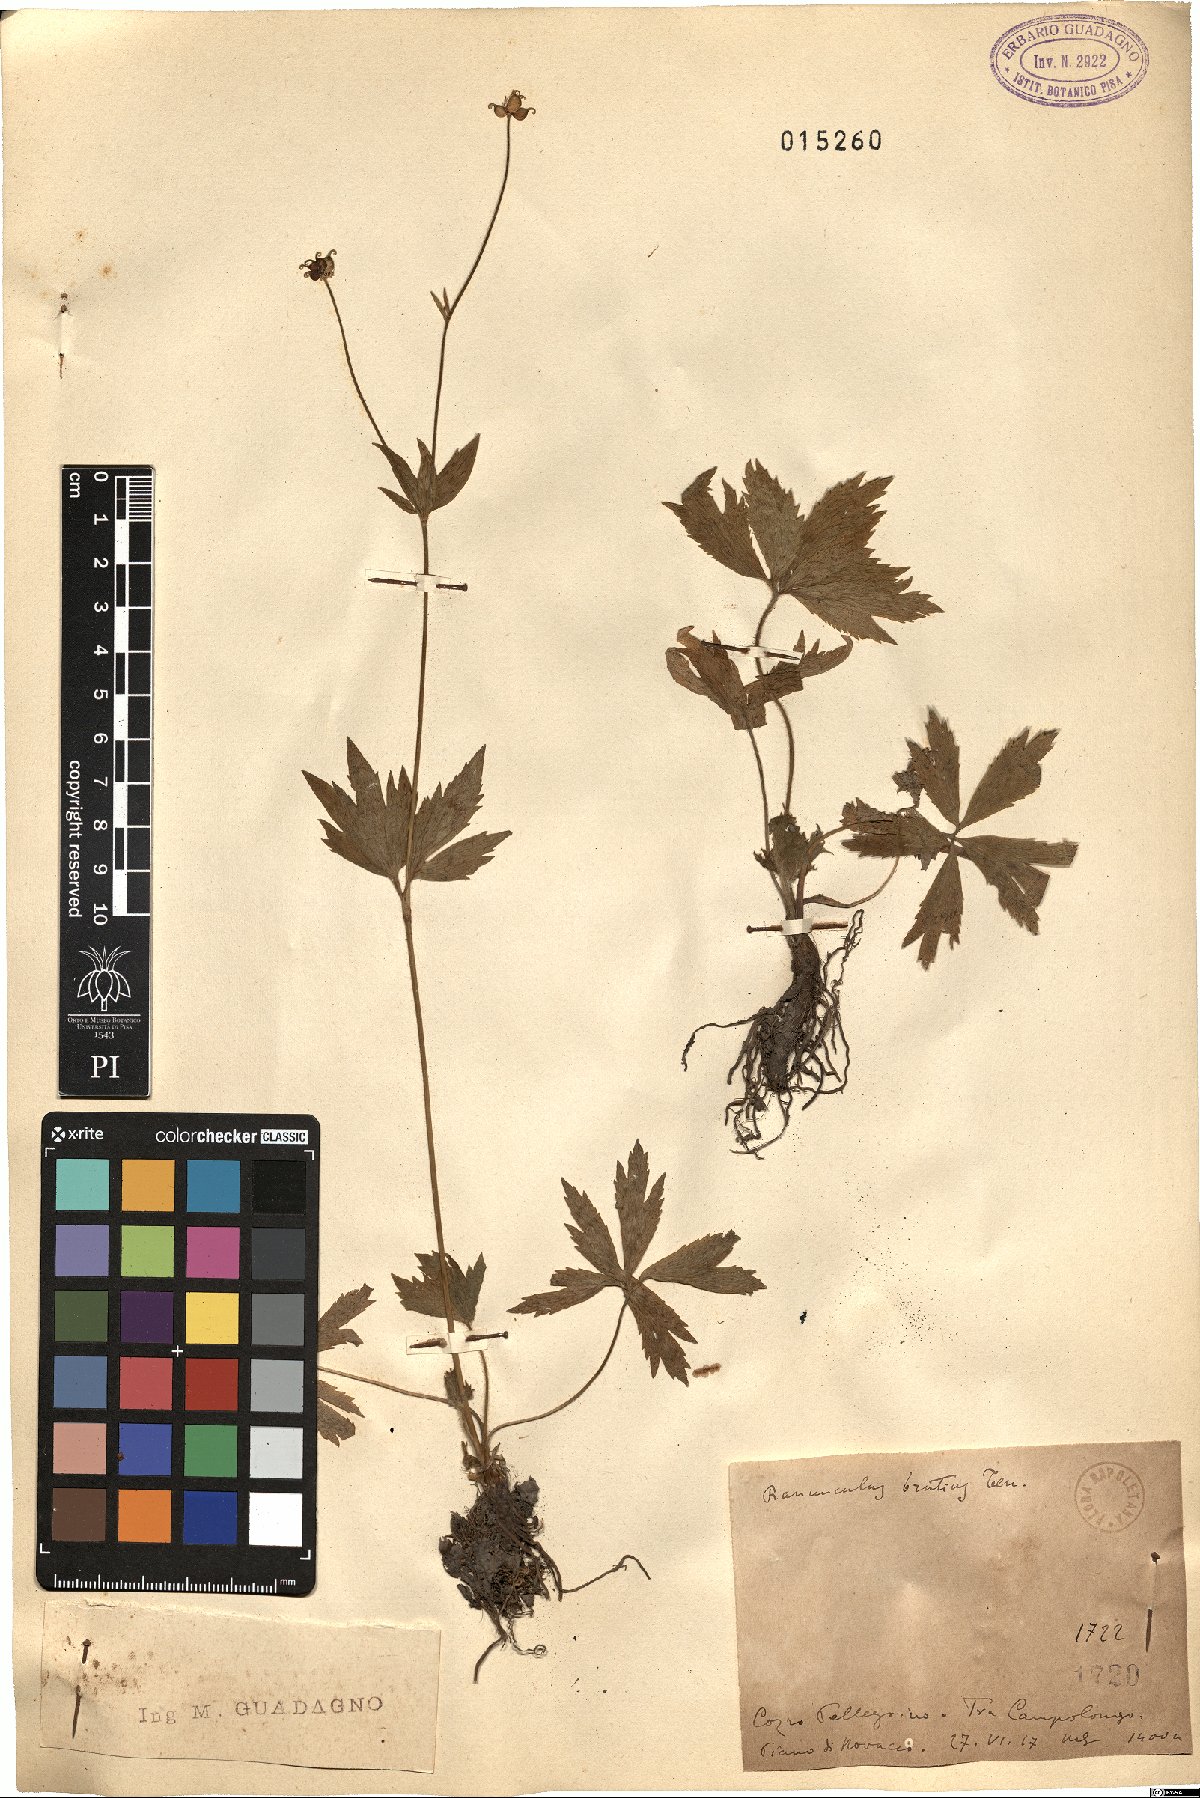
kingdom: Plantae
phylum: Tracheophyta
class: Magnoliopsida
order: Ranunculales
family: Ranunculaceae
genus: Ranunculus
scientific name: Ranunculus brutius
